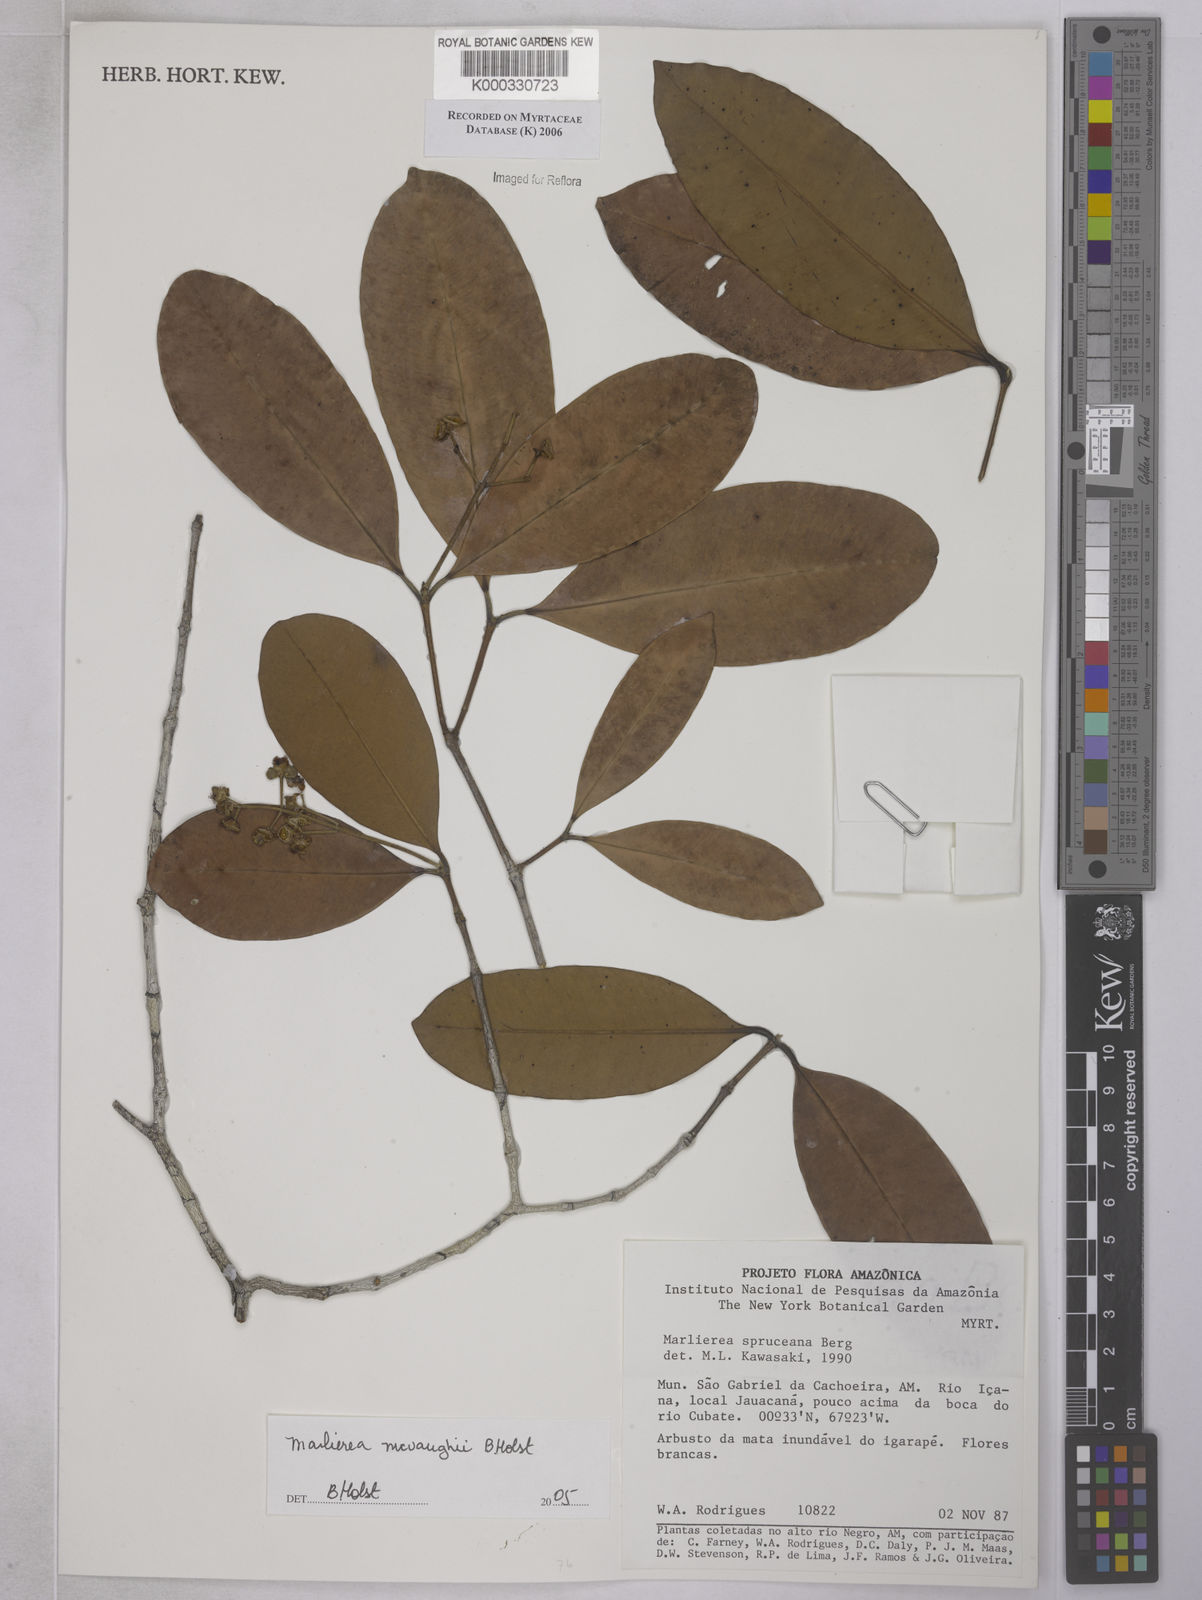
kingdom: Plantae
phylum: Tracheophyta
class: Magnoliopsida
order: Myrtales
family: Myrtaceae
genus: Myrcia
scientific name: Myrcia mcvaughii
